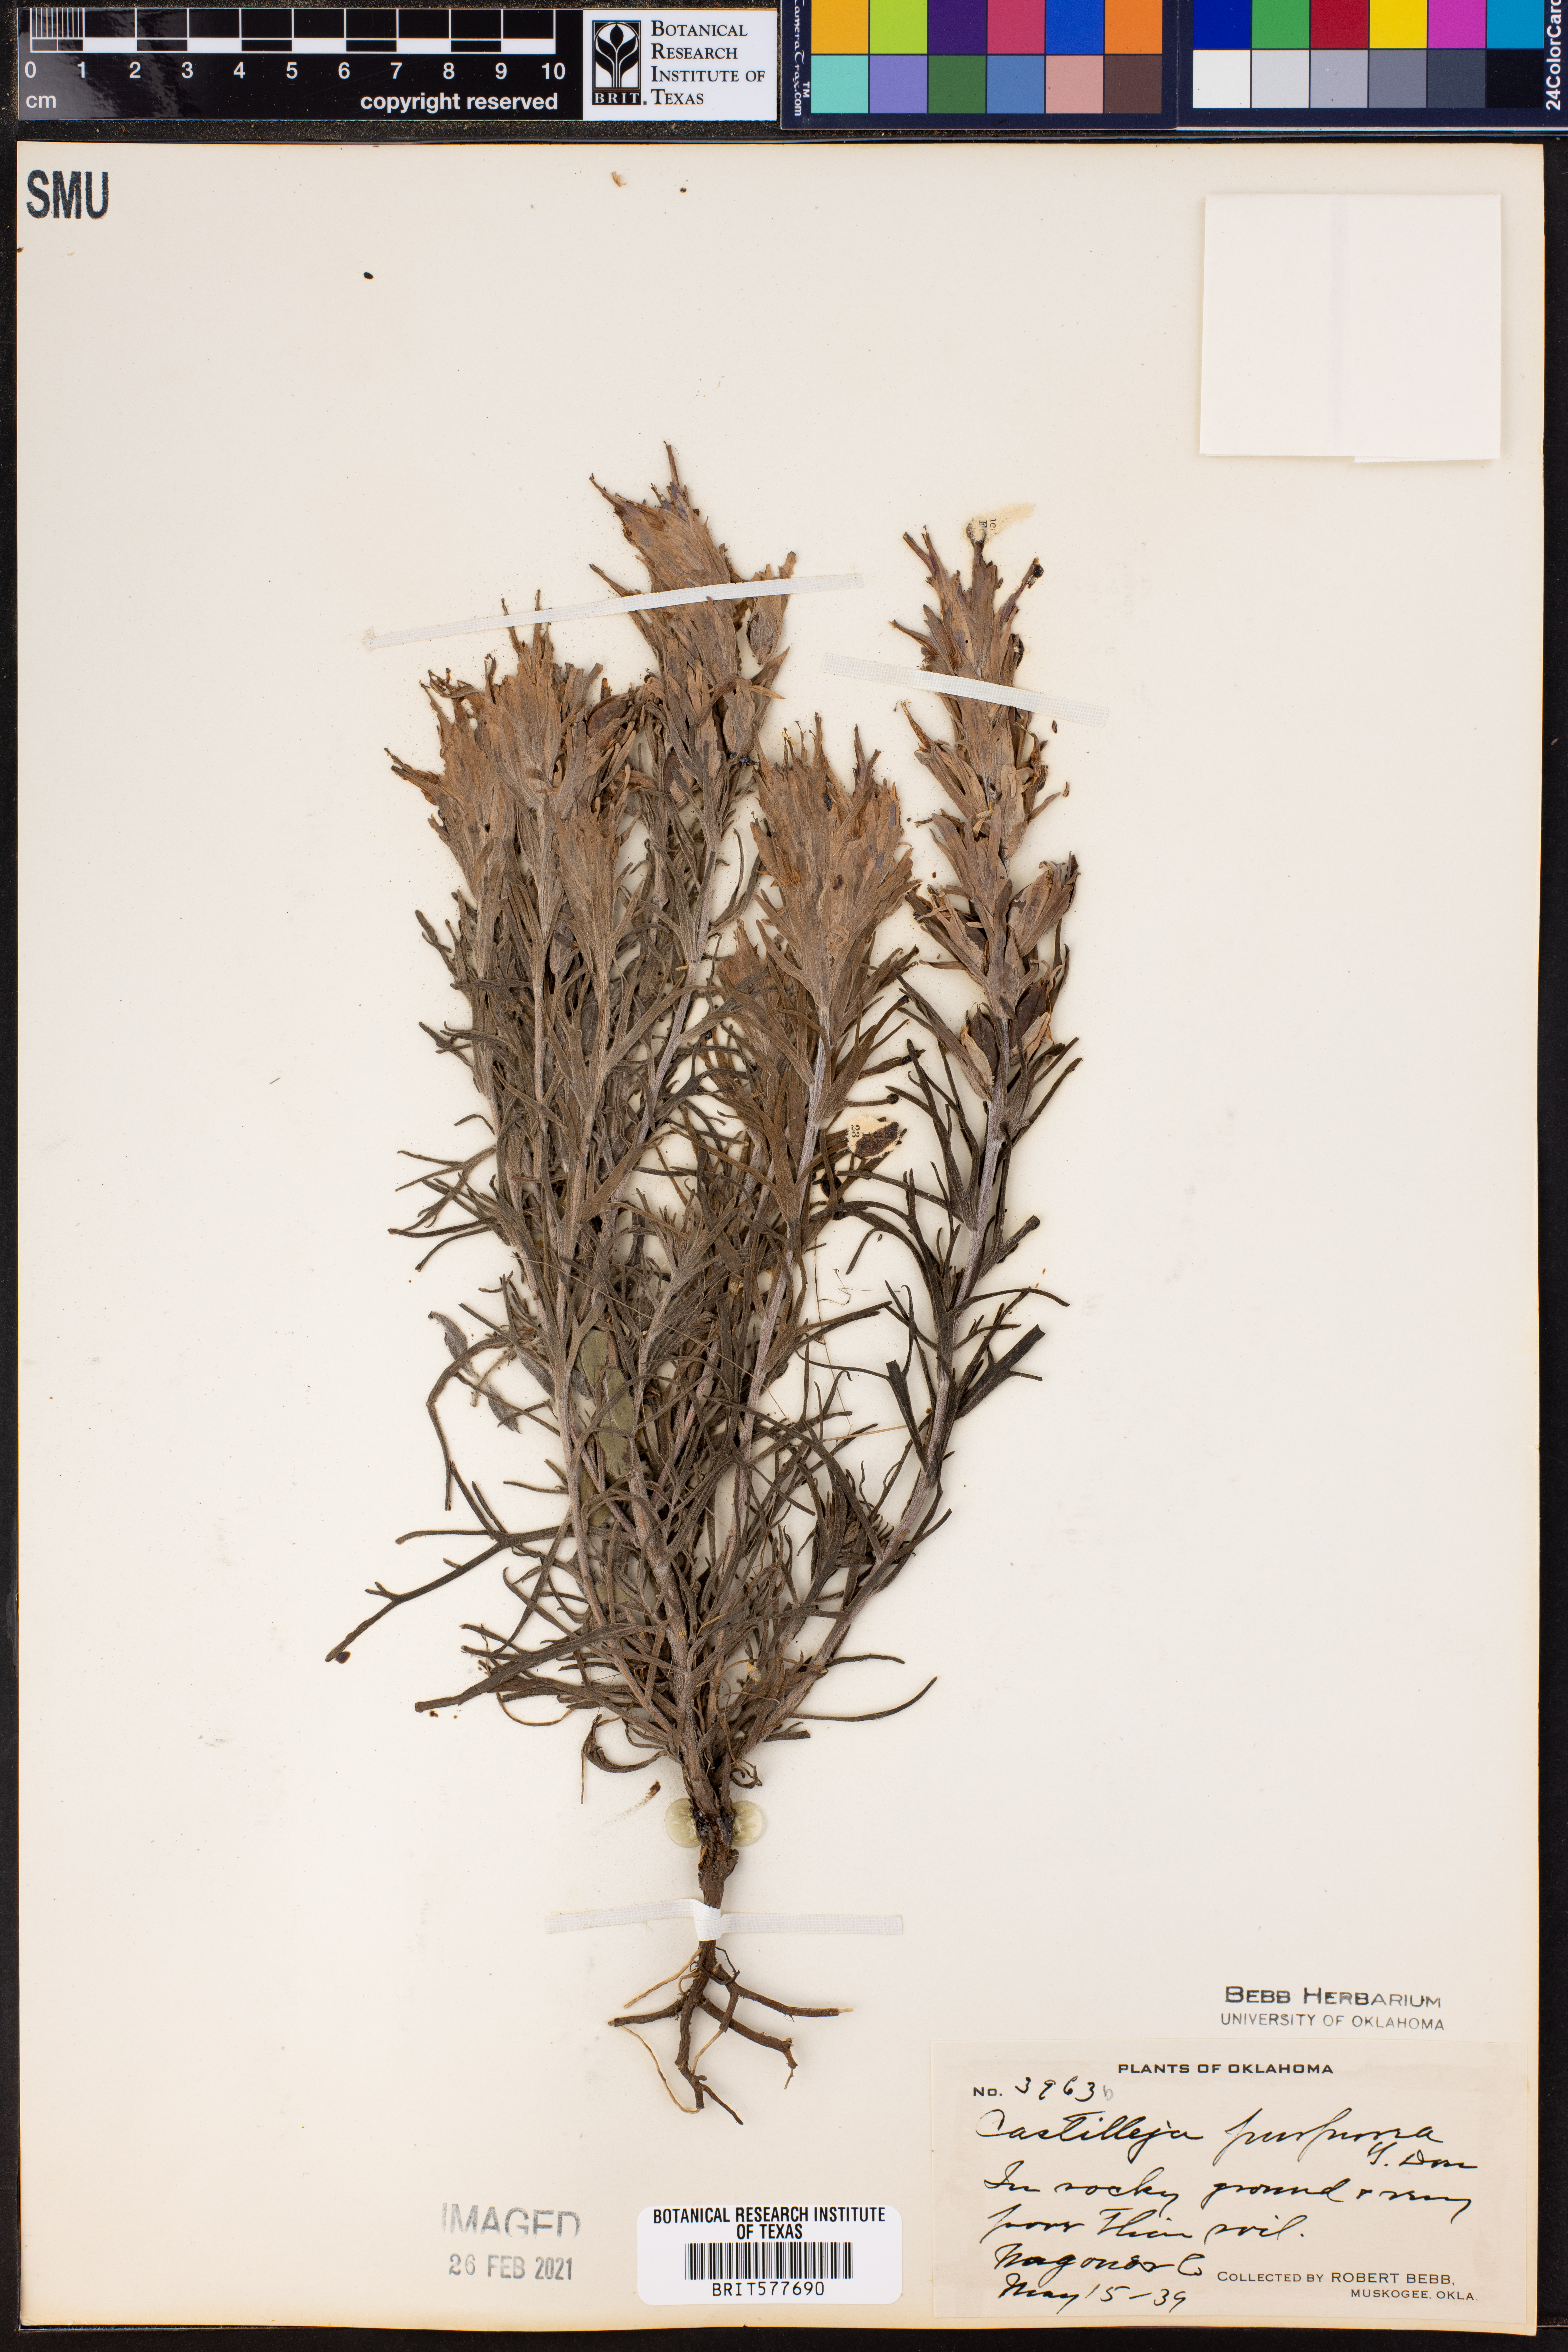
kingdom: Plantae
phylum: Tracheophyta
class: Magnoliopsida
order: Lamiales
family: Orobanchaceae
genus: Castilleja
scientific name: Castilleja purpurea
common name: Plains paintbrush
